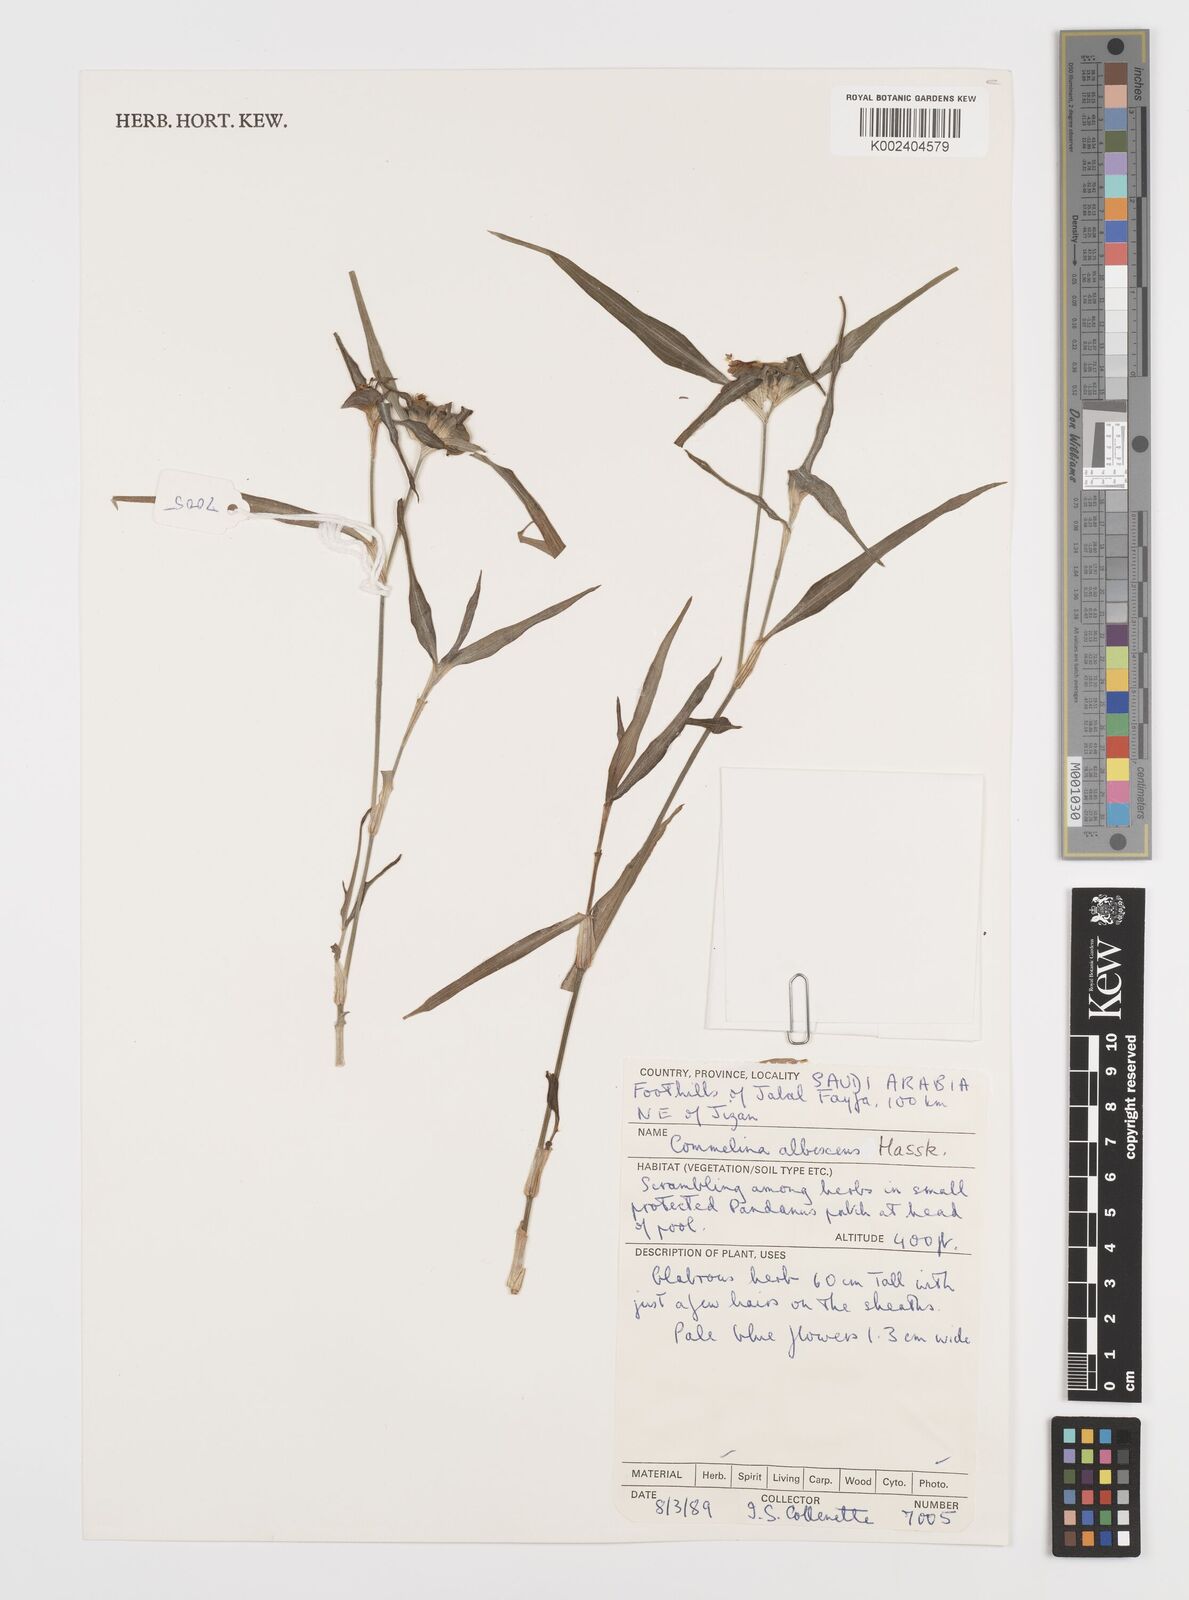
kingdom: Plantae
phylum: Tracheophyta
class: Liliopsida
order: Commelinales
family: Commelinaceae
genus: Commelina
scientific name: Commelina albescens
